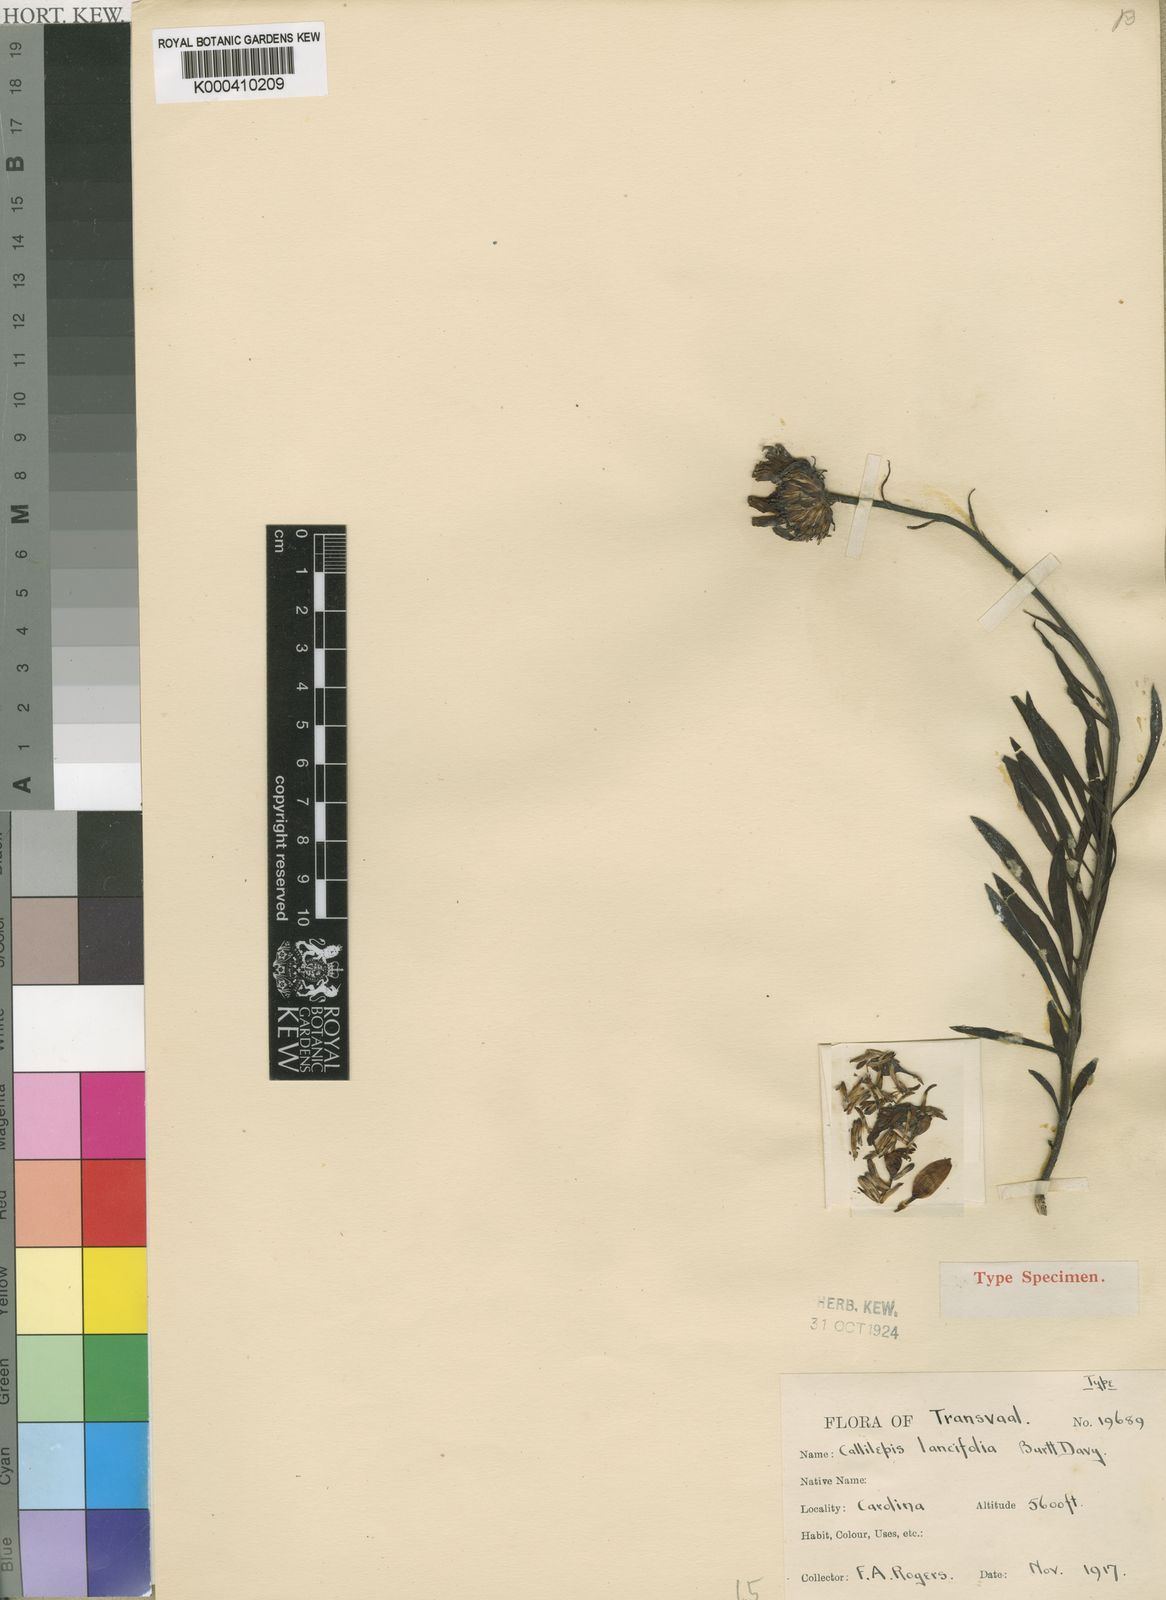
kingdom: Plantae
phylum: Tracheophyta
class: Magnoliopsida
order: Asterales
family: Asteraceae
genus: Callilepis
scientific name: Callilepis lancifolia
